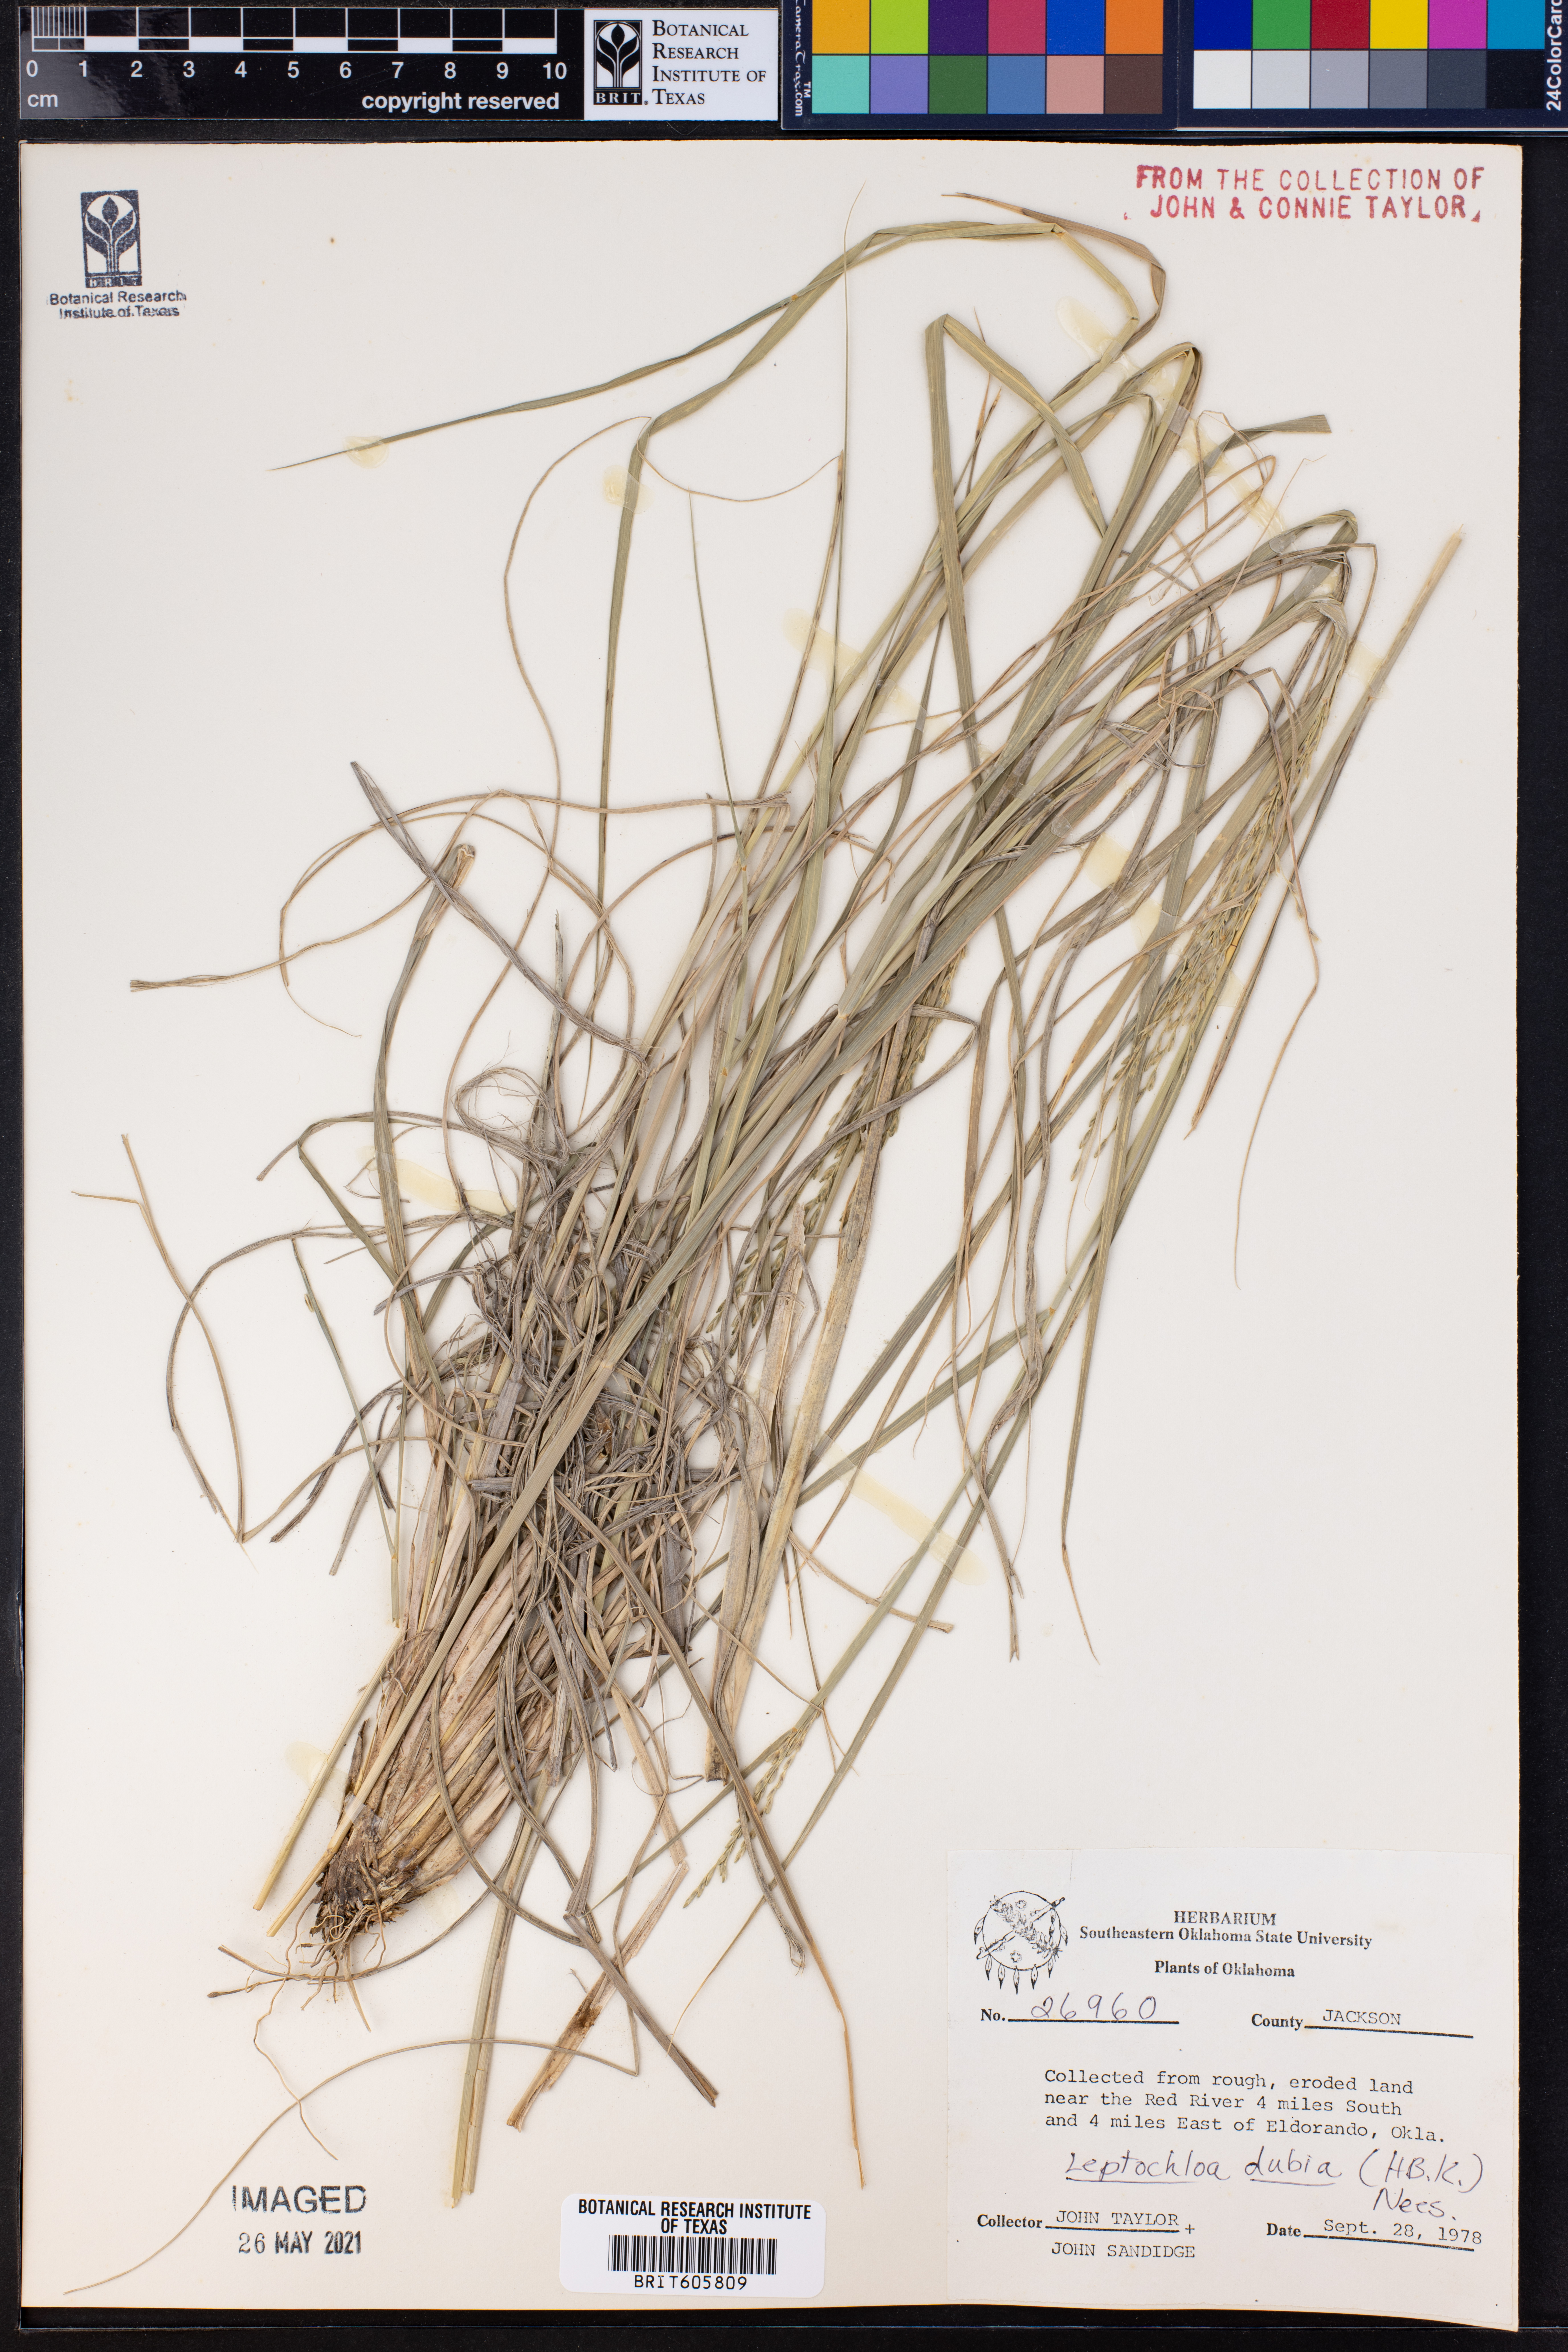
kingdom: Plantae
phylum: Tracheophyta
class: Liliopsida
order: Poales
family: Poaceae
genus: Disakisperma
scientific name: Disakisperma dubium
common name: Green sprangletop
